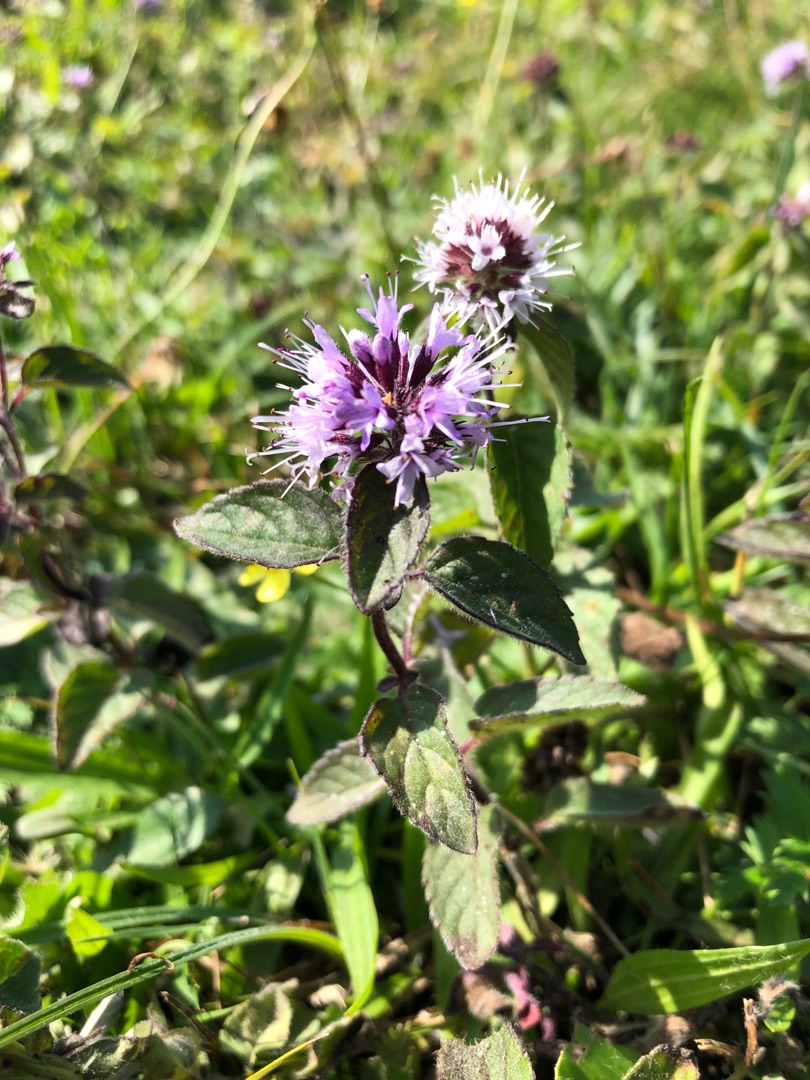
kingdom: Plantae
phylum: Tracheophyta
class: Magnoliopsida
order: Lamiales
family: Lamiaceae
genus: Mentha
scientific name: Mentha aquatica
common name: Vand-mynte
